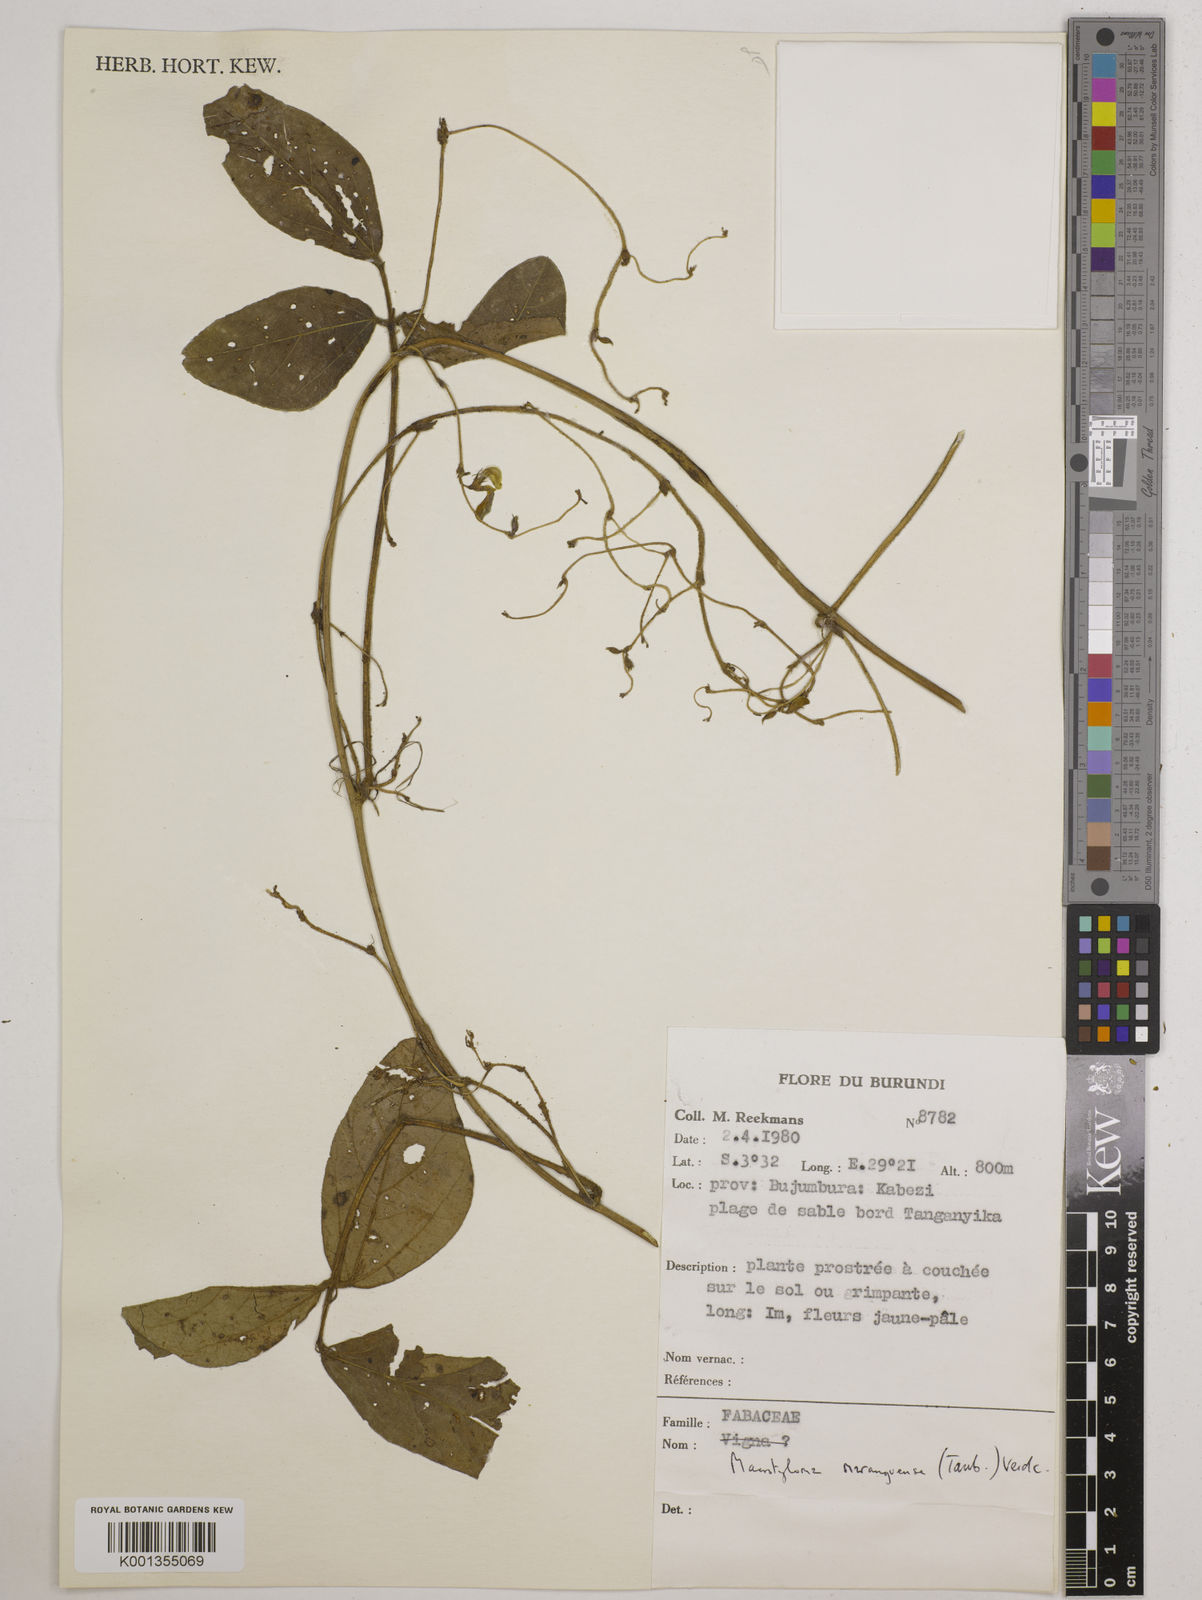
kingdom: Plantae
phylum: Tracheophyta
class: Magnoliopsida
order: Fabales
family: Fabaceae
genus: Macrotyloma
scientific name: Macrotyloma maranguense
